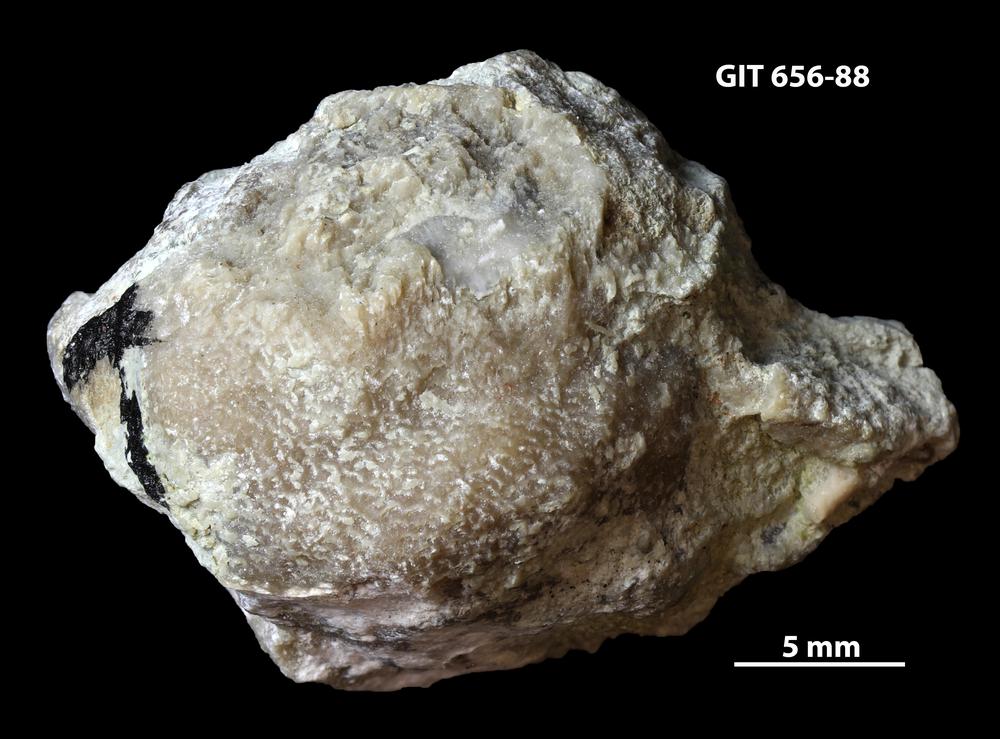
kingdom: Animalia
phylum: Cnidaria
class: Anthozoa
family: Alveolitidae
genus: Kitakamiia
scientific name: Kitakamiia
